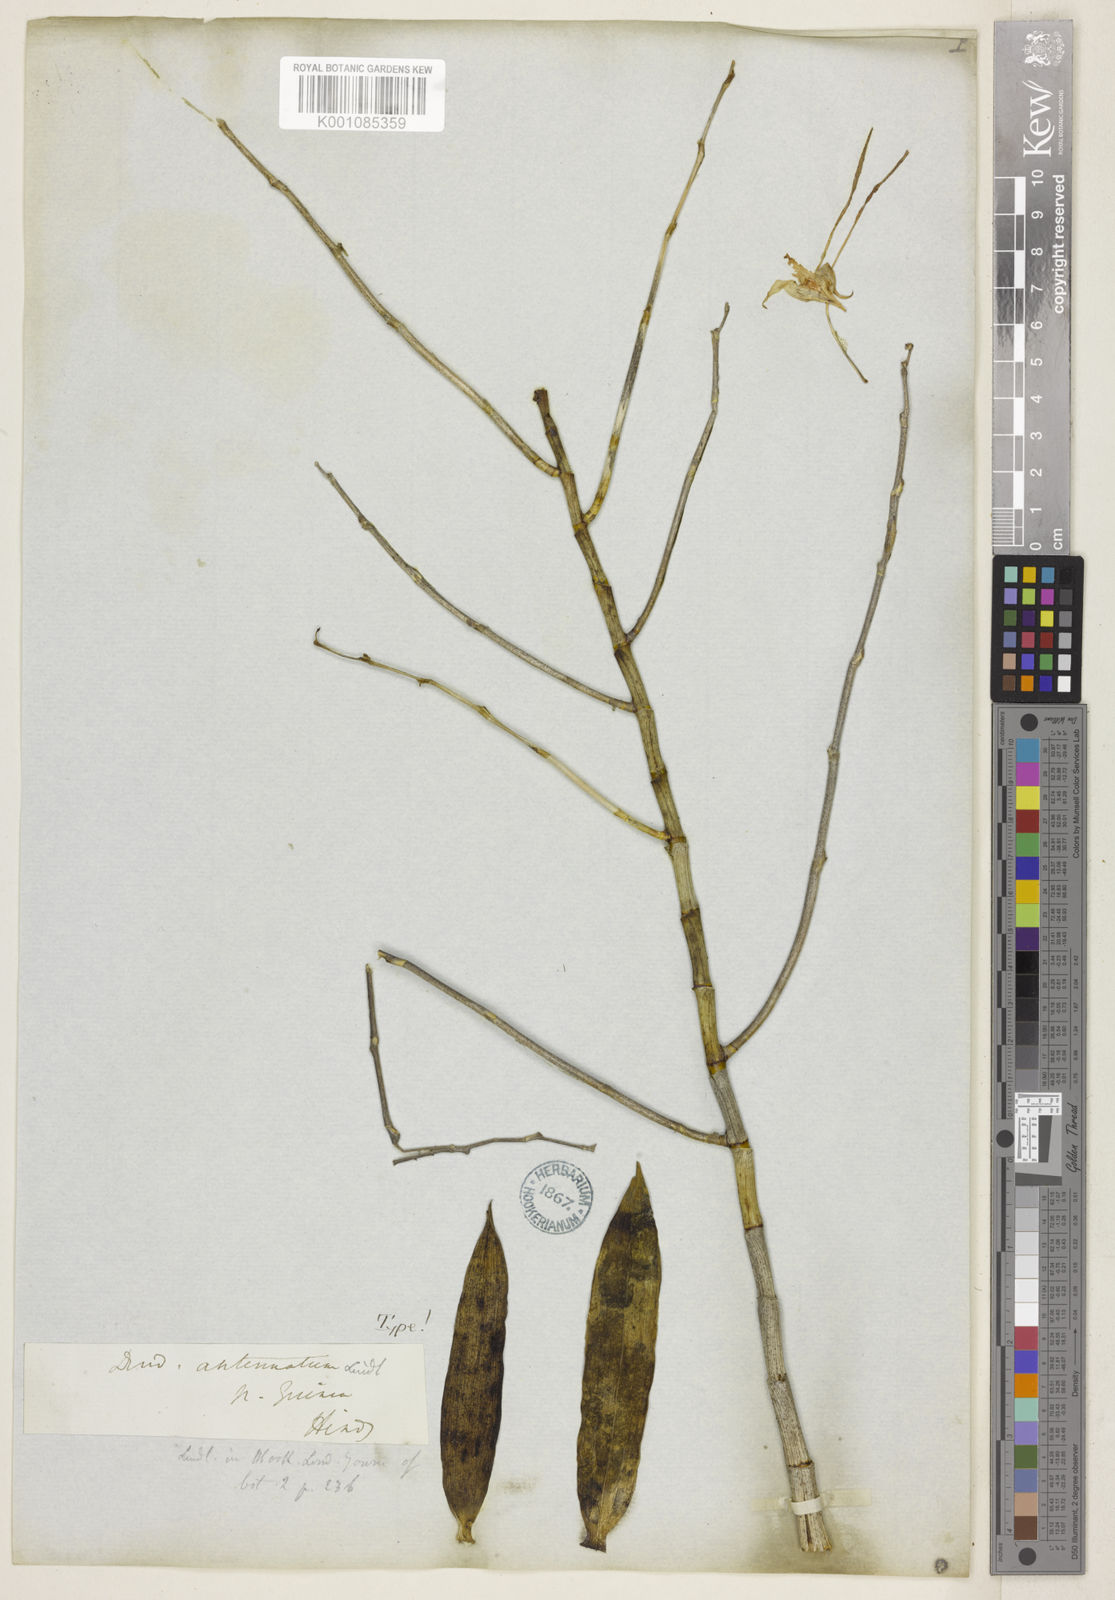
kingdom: Plantae
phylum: Tracheophyta
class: Liliopsida
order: Asparagales
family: Orchidaceae
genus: Dendrobium
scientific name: Dendrobium antennatum
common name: Green antelope orchid
